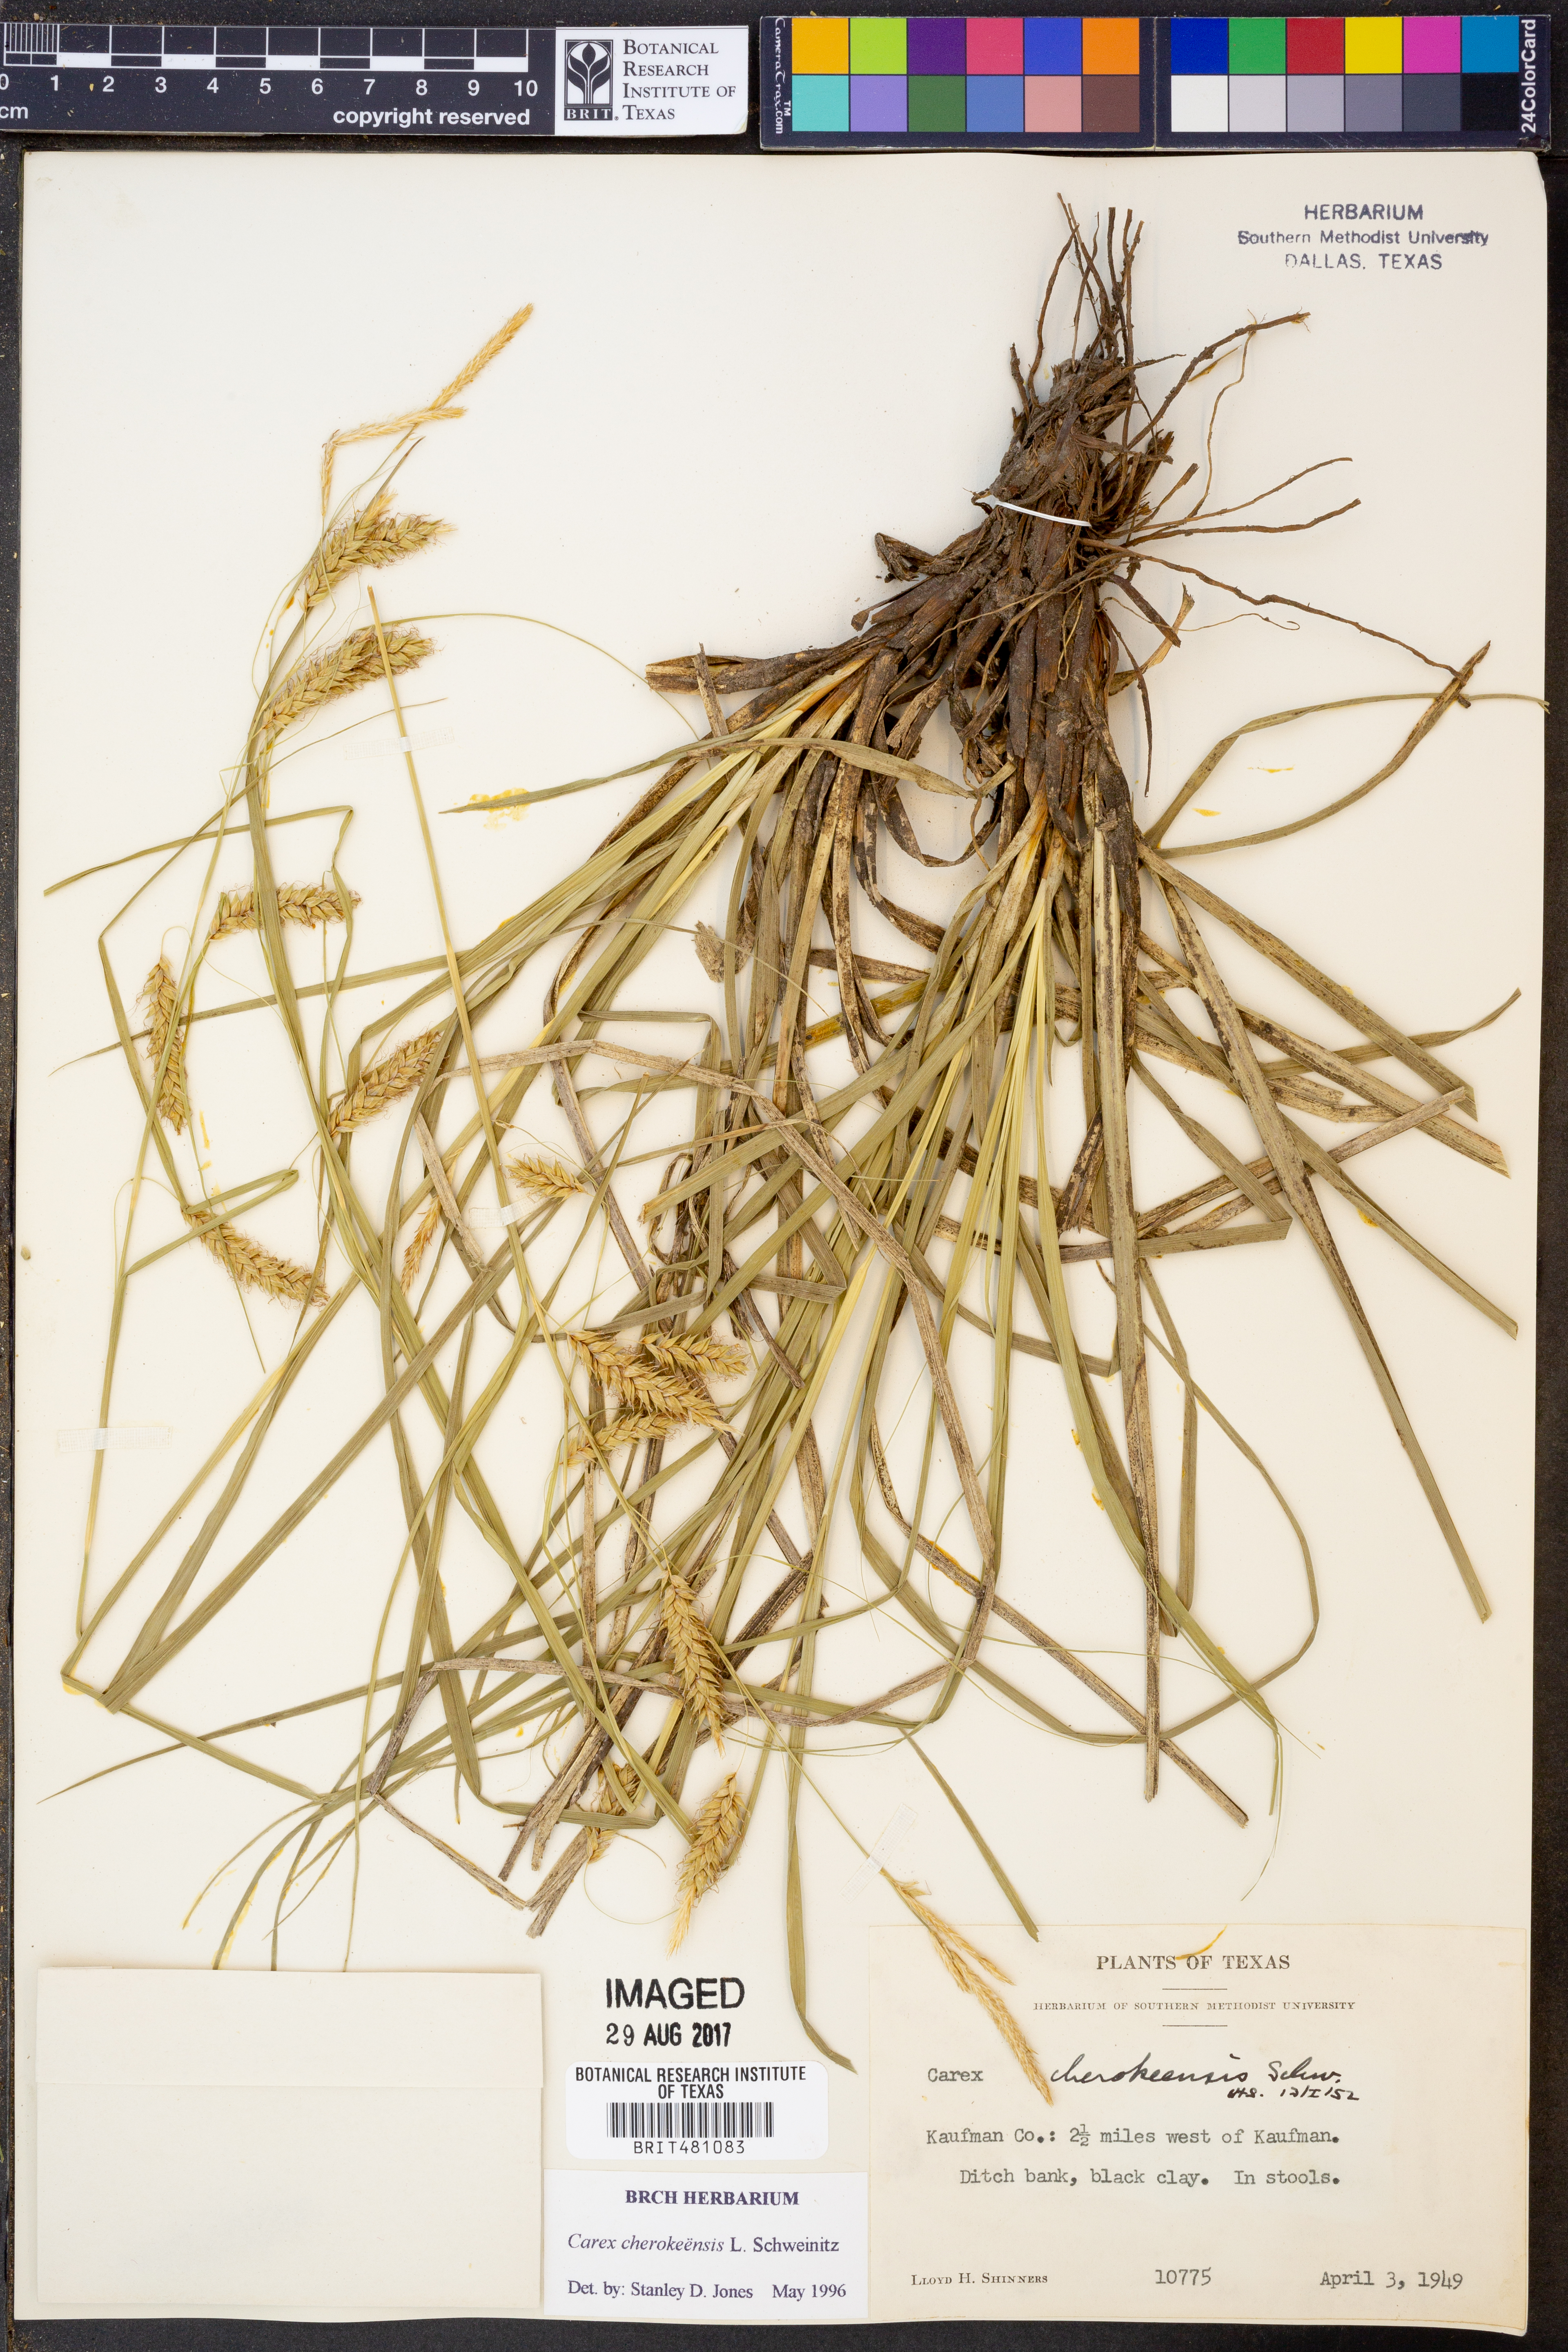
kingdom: Plantae
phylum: Tracheophyta
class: Liliopsida
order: Poales
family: Cyperaceae
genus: Carex
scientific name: Carex cherokeensis
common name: Cherokee sedge
